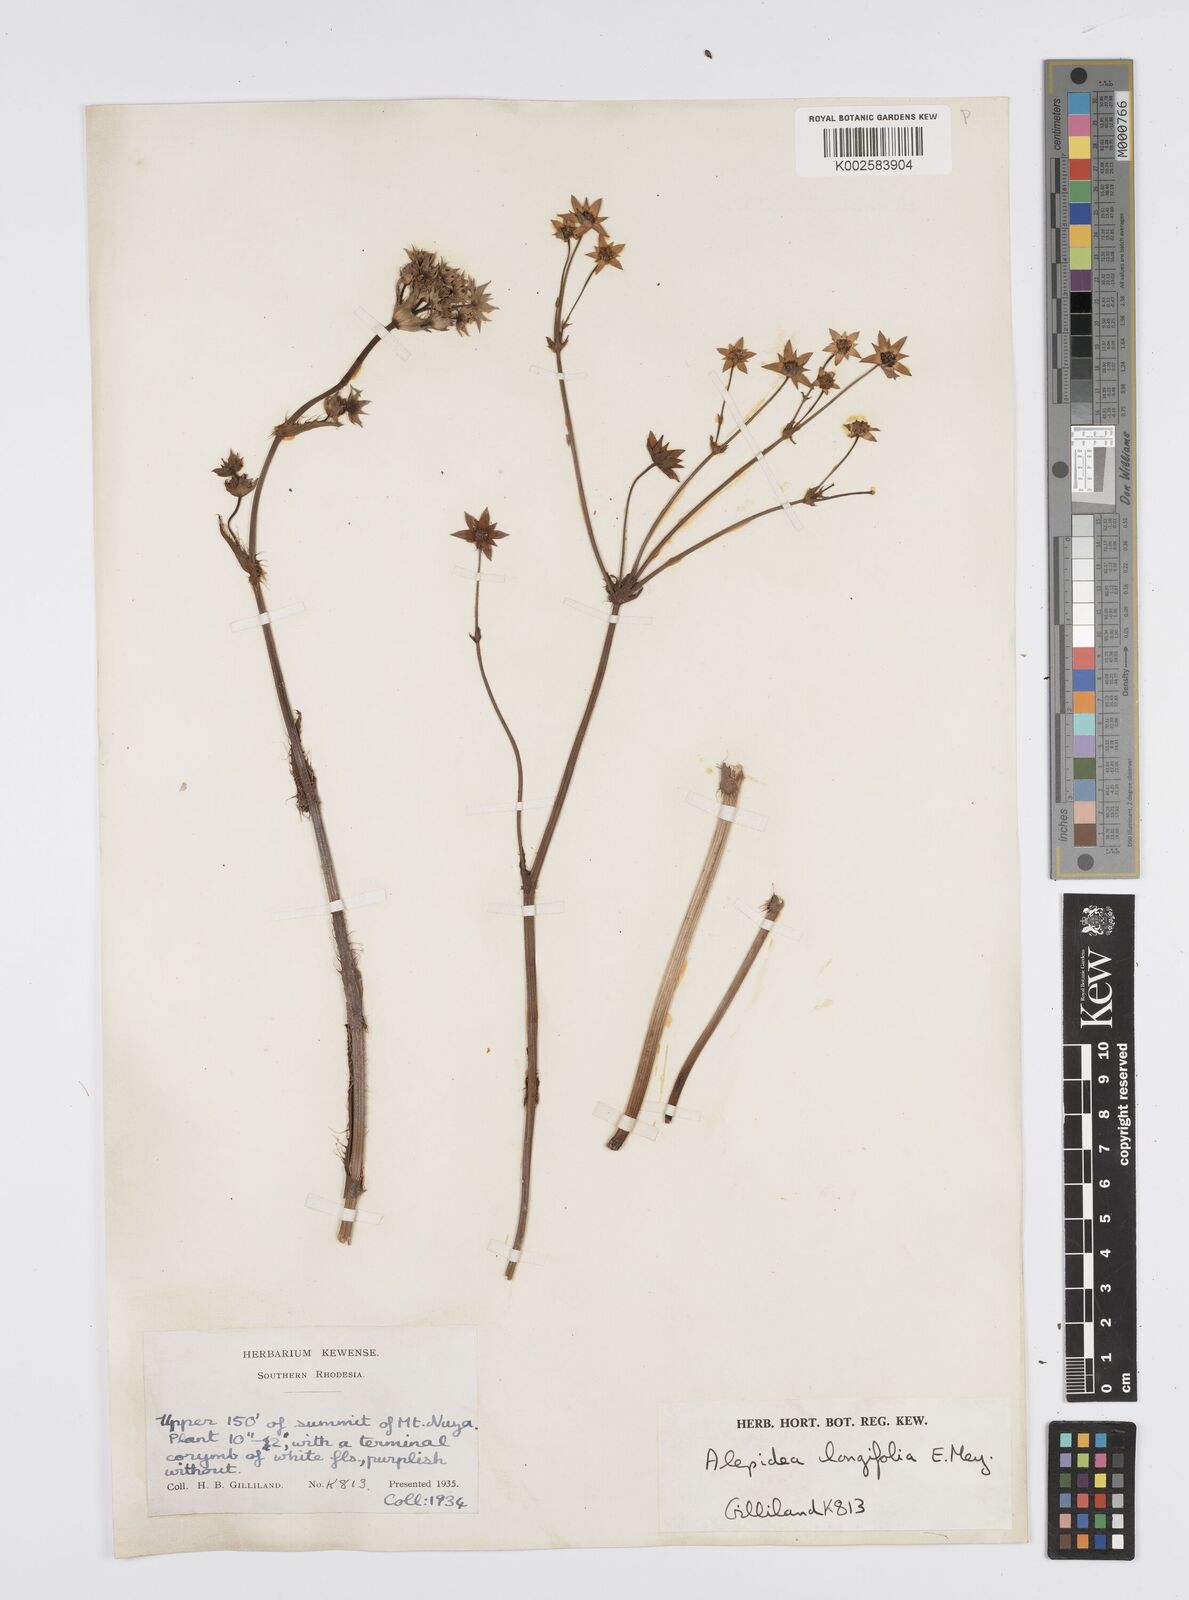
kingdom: Plantae
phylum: Tracheophyta
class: Magnoliopsida
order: Apiales
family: Apiaceae
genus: Alepidea
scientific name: Alepidea
